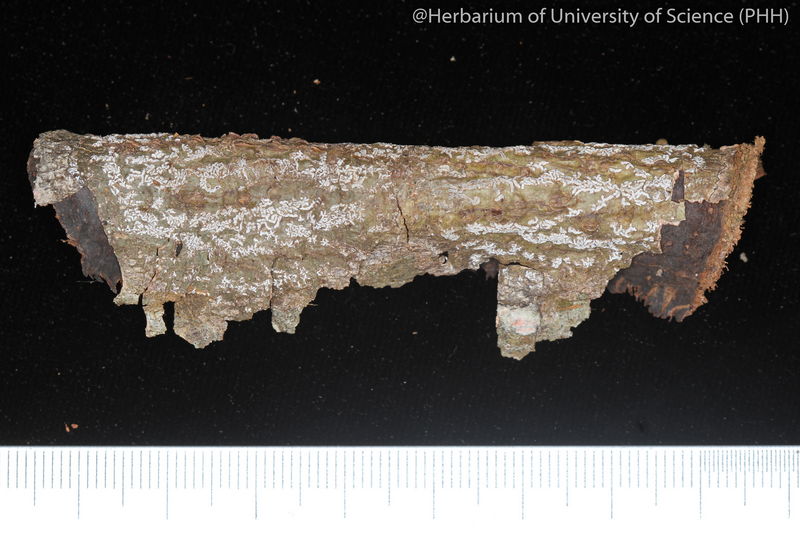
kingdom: Fungi
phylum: Ascomycota
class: Lecanoromycetes
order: Ostropales
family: Graphidaceae
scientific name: Graphidaceae
